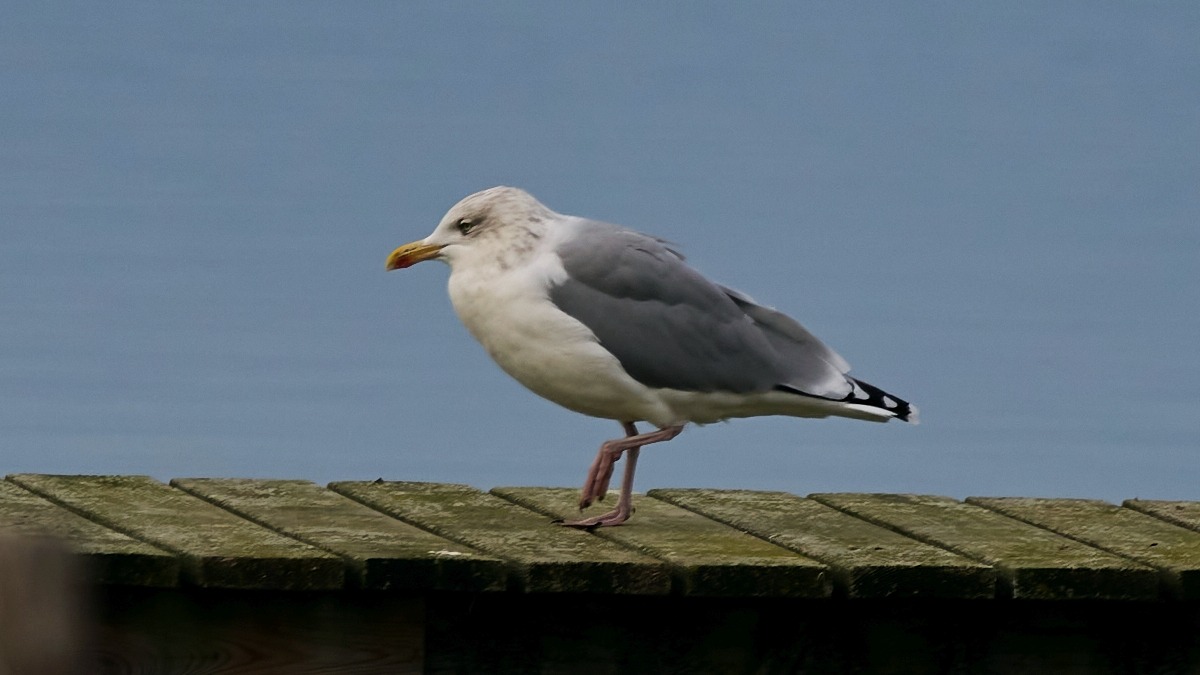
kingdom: Animalia
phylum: Chordata
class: Aves
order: Charadriiformes
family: Laridae
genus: Larus
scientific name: Larus argentatus
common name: Sølvmåge
